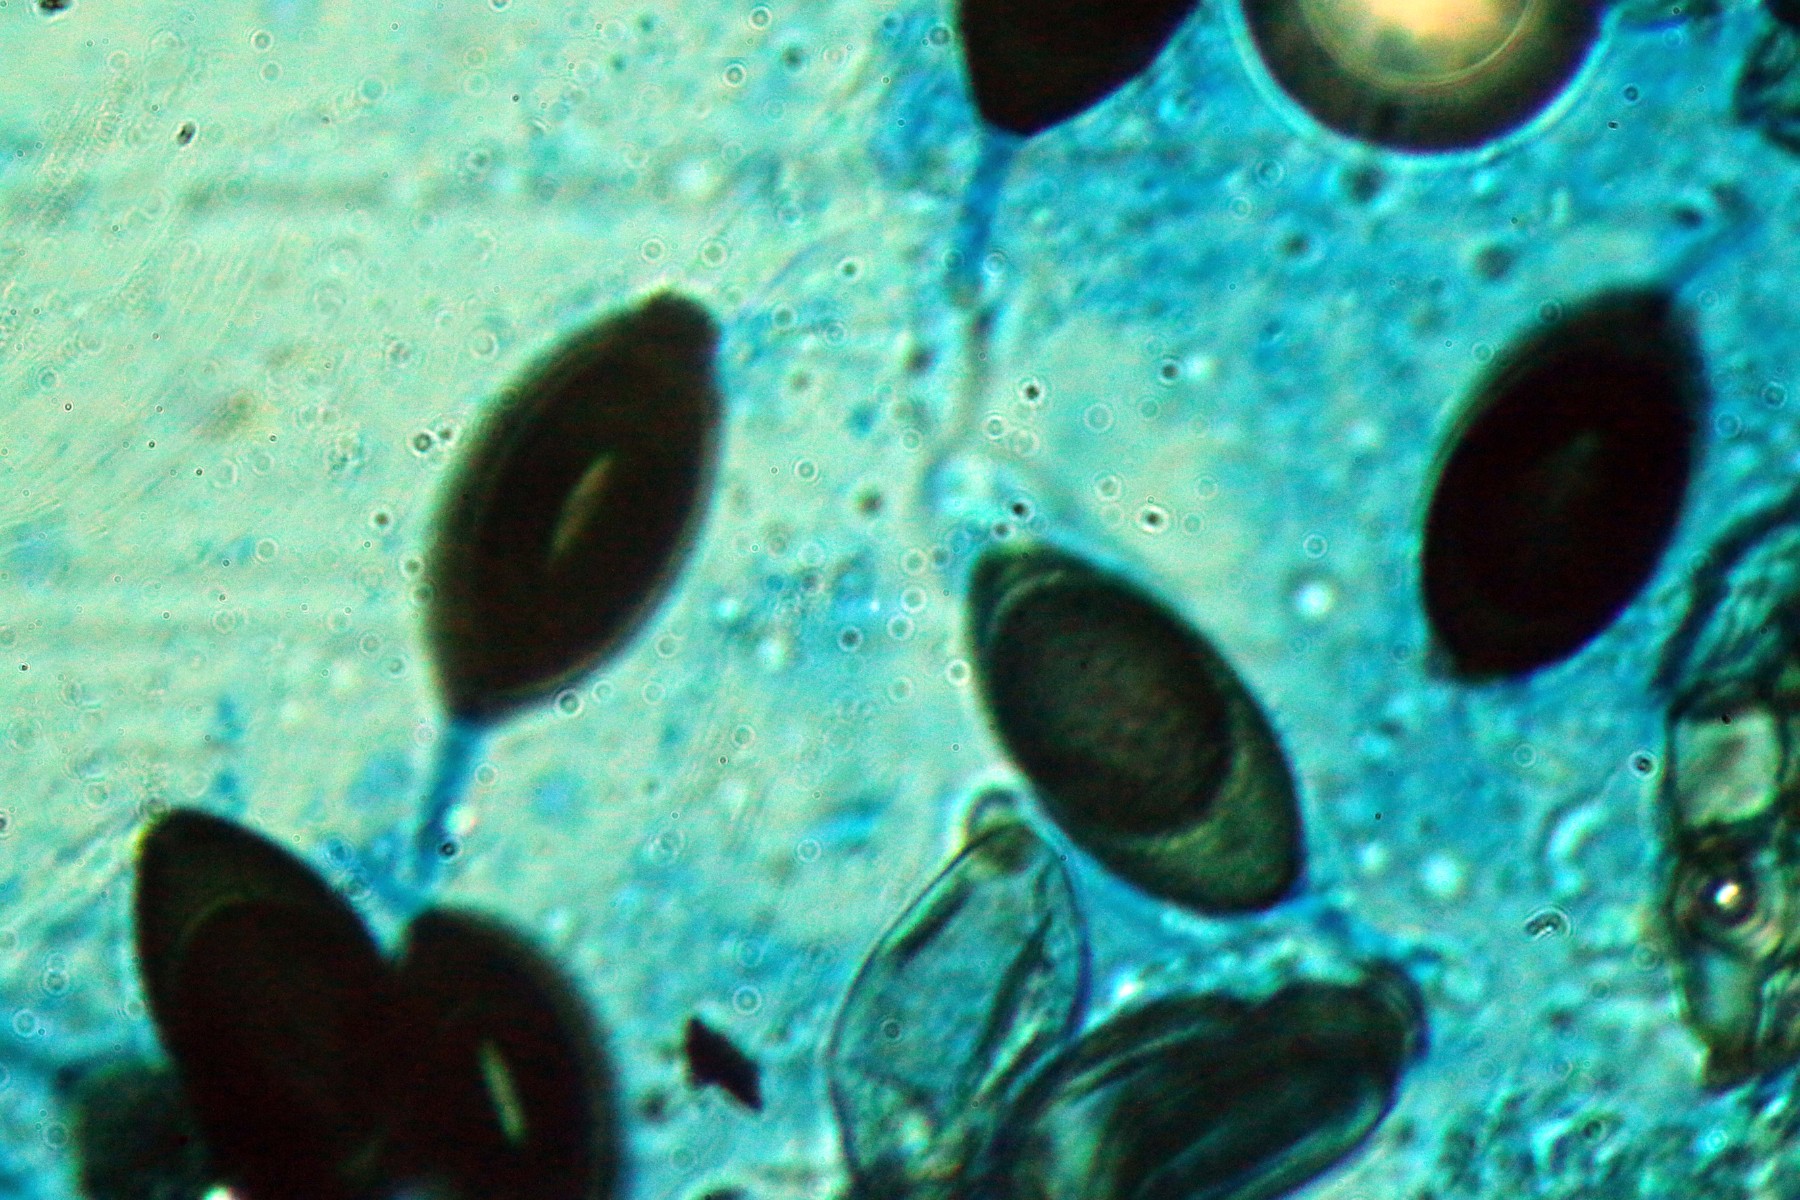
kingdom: Fungi
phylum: Ascomycota
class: Sordariomycetes
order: Sordariales
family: Neoschizotheciaceae
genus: Neoschizothecium
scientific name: Neoschizothecium conicum
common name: kegle-kernesvamp
